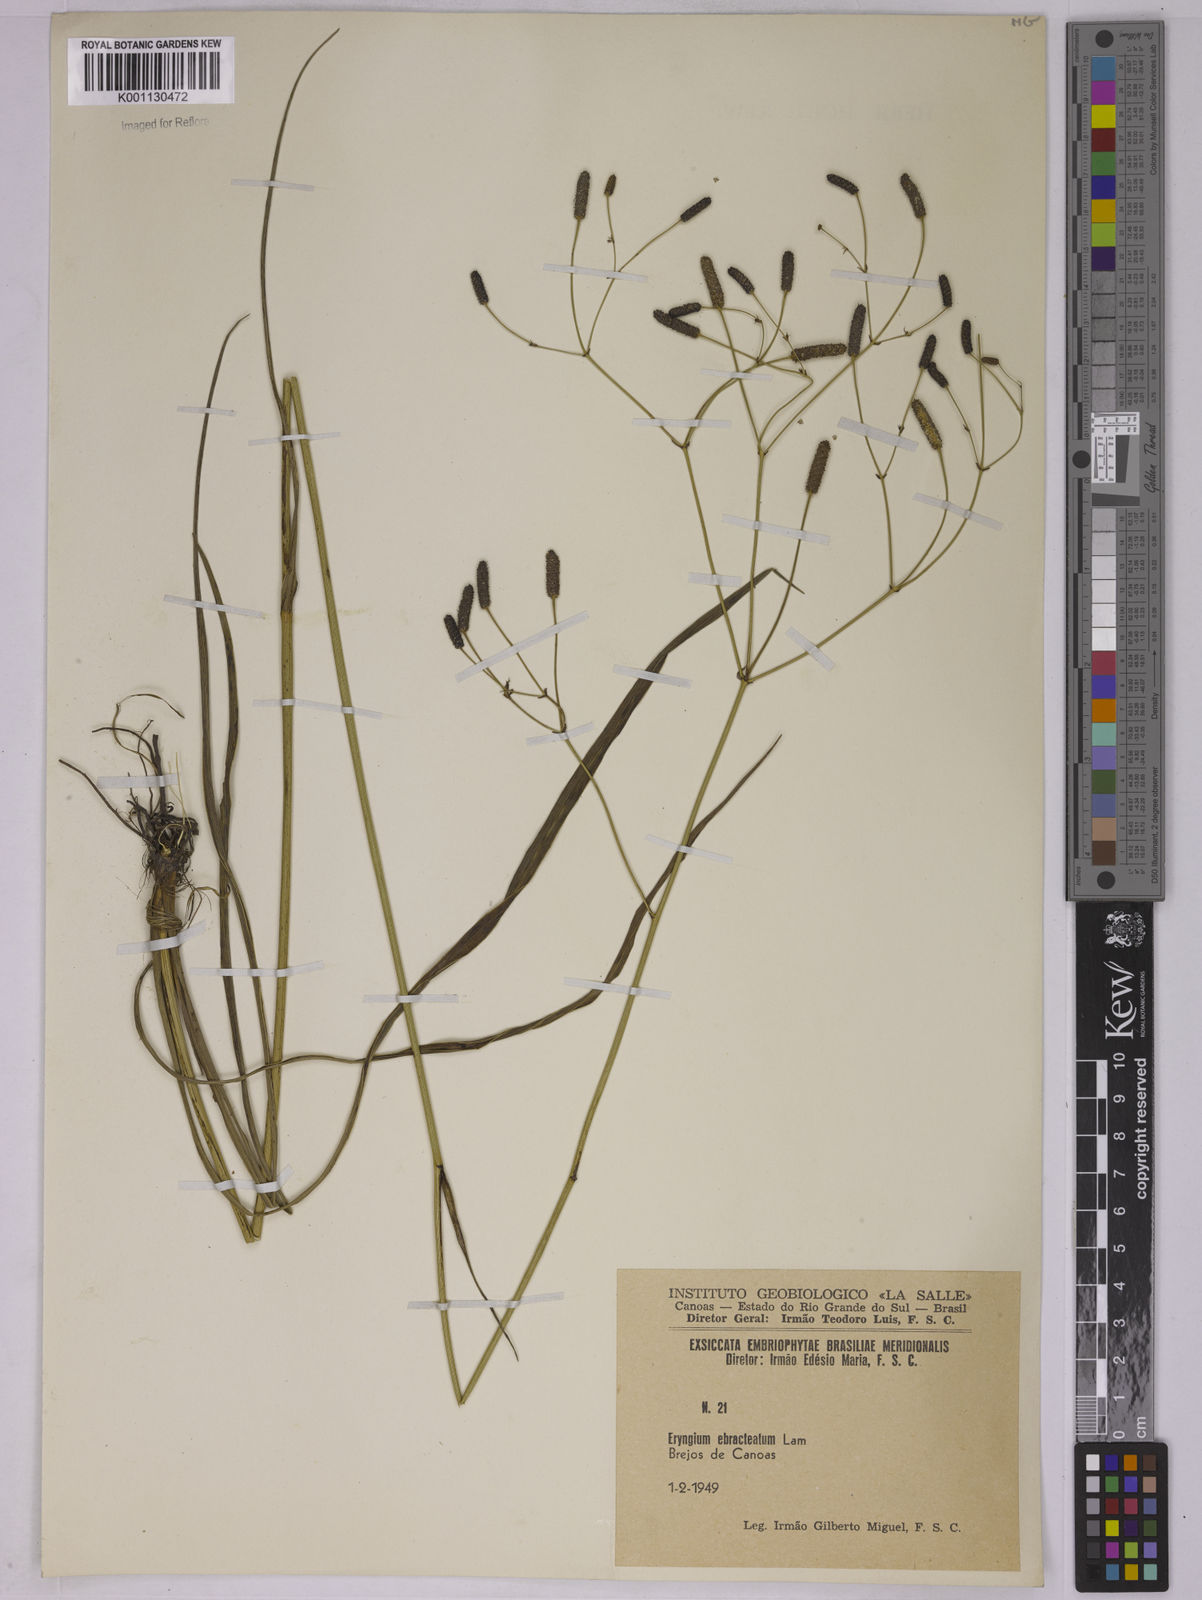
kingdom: Plantae
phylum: Tracheophyta
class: Magnoliopsida
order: Apiales
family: Apiaceae
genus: Eryngium
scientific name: Eryngium ebracteatum
